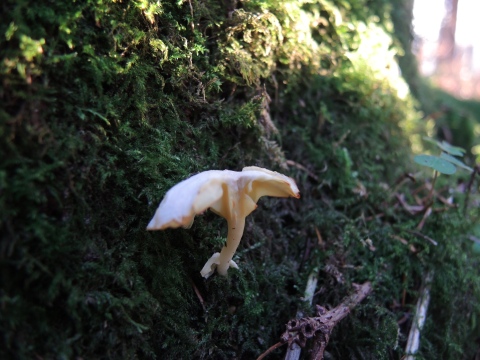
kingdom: Fungi
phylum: Basidiomycota
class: Agaricomycetes
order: Agaricales
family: Hygrophoraceae
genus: Chrysomphalina
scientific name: Chrysomphalina grossula
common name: stød-gyldenblad
